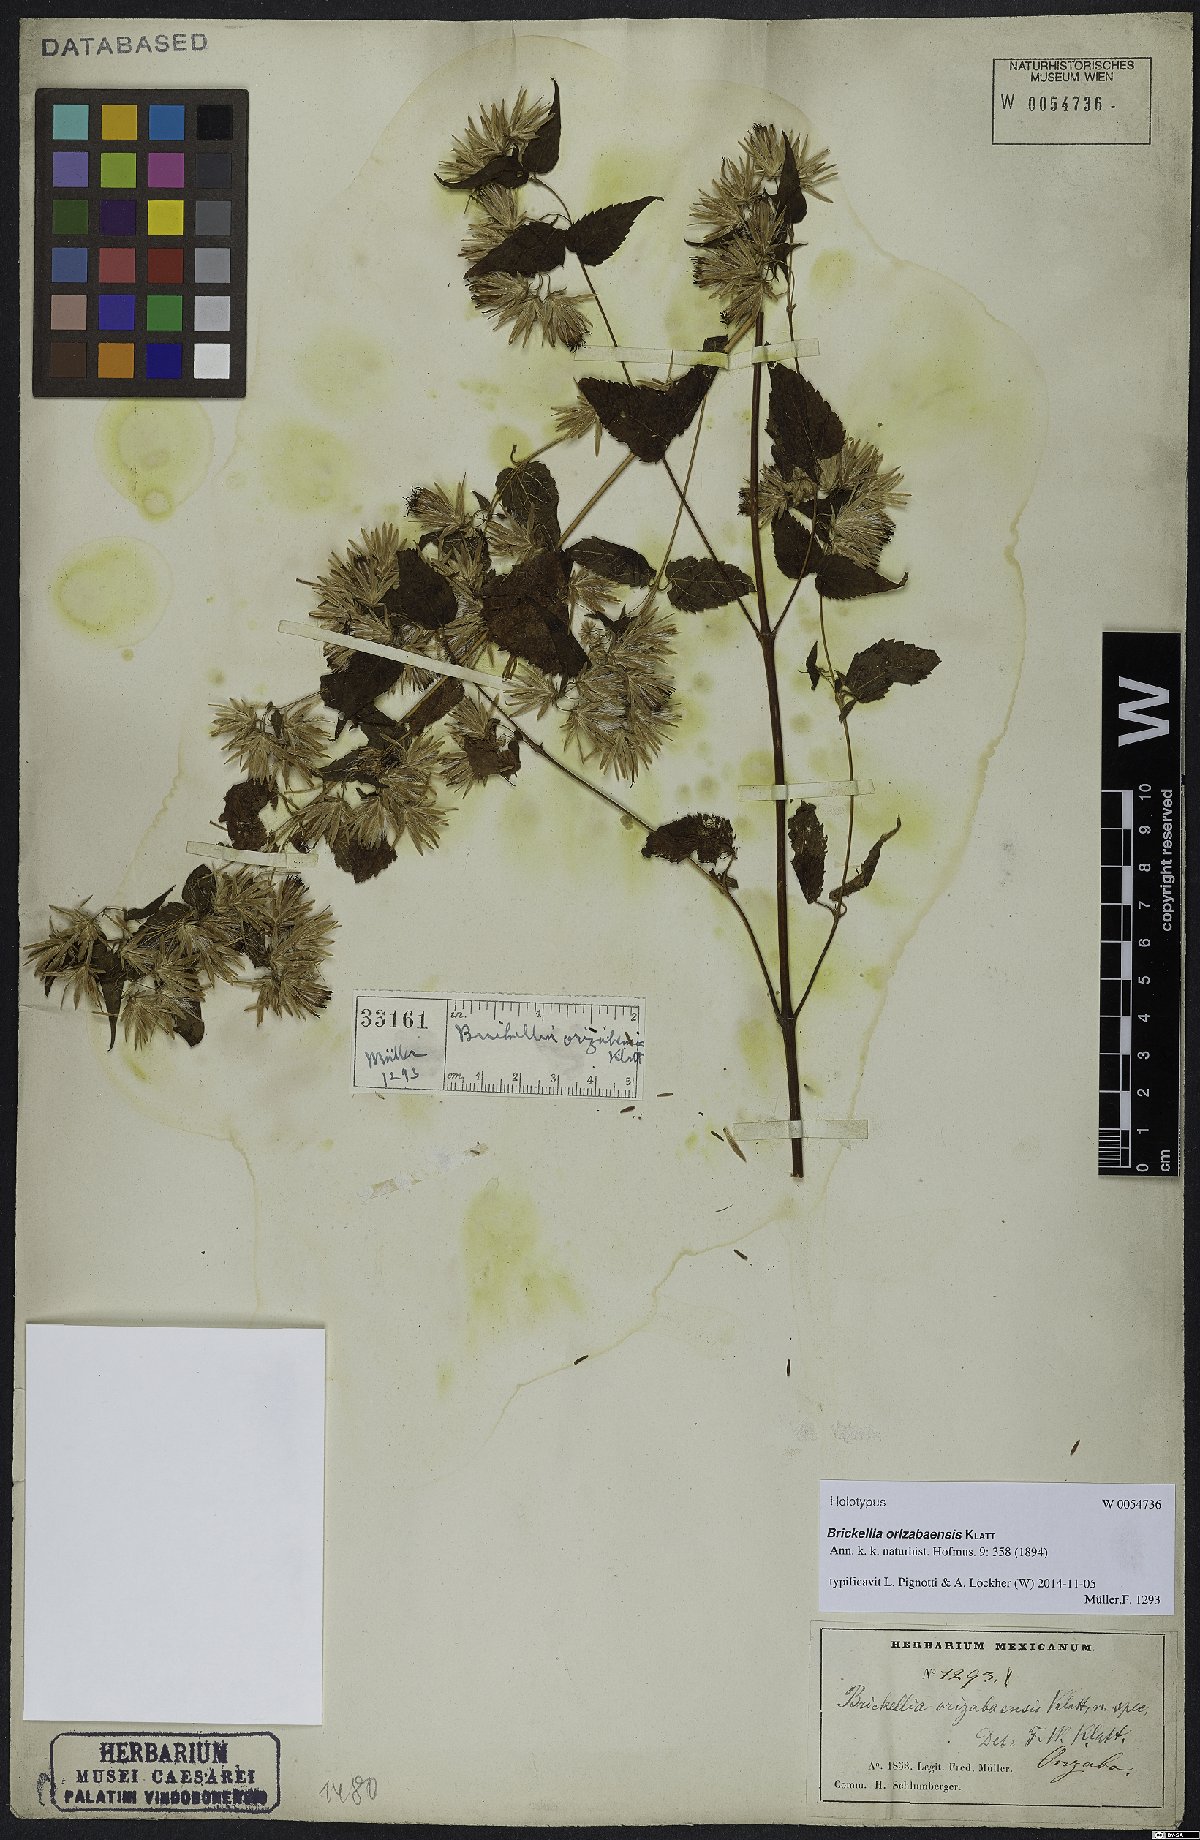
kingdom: Plantae
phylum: Tracheophyta
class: Magnoliopsida
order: Asterales
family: Asteraceae
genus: Brickellia
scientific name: Brickellia orizabaensis
